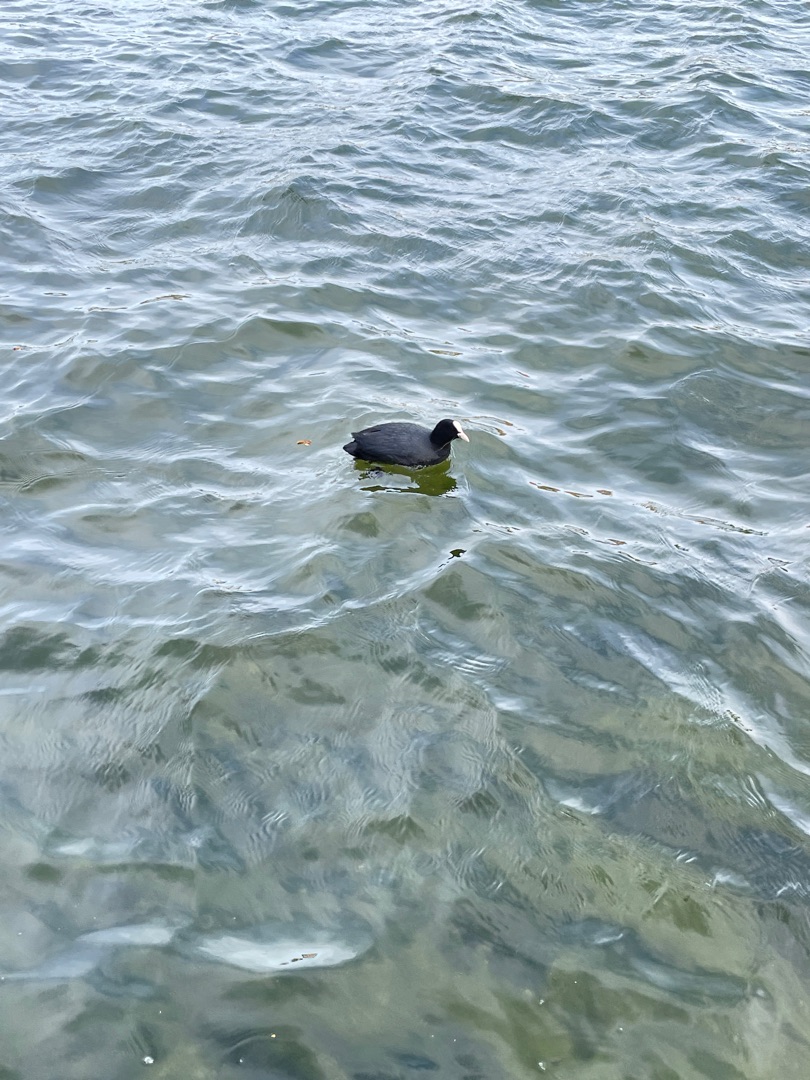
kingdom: Animalia
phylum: Chordata
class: Aves
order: Gruiformes
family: Rallidae
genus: Fulica
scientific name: Fulica atra
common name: Blishøne
